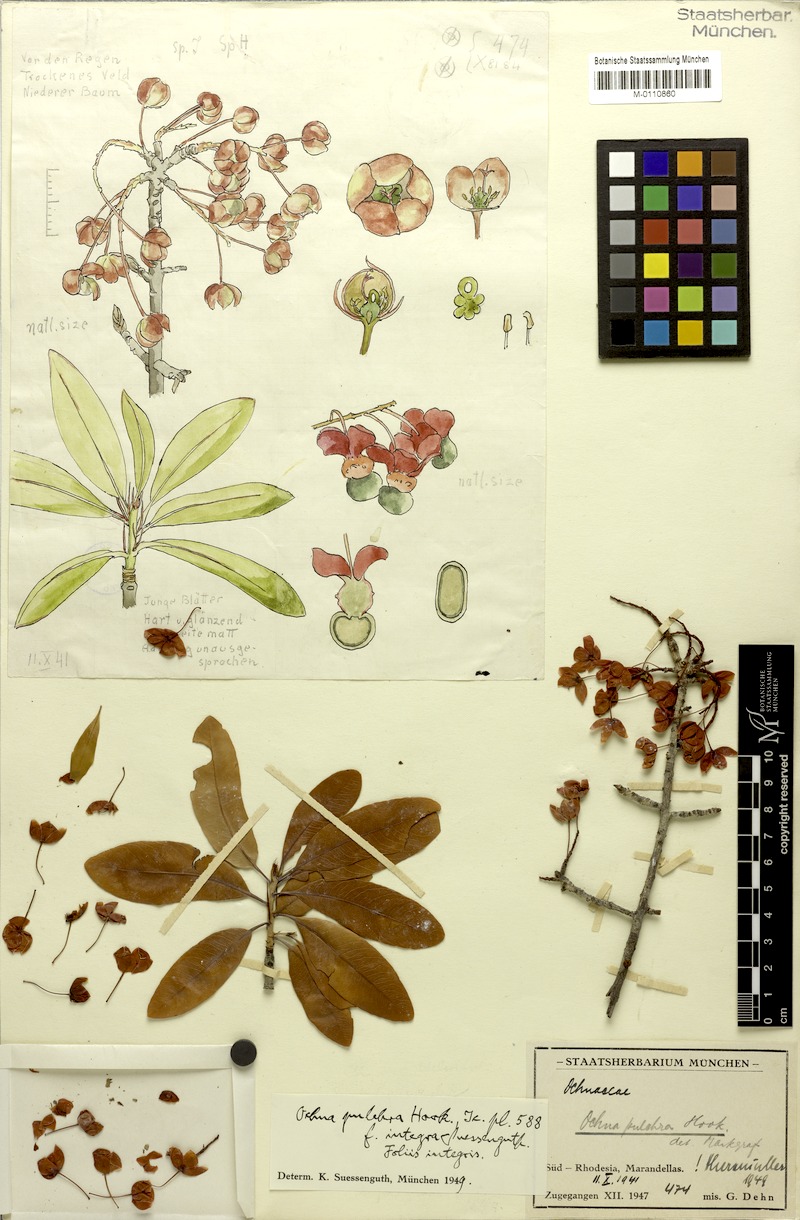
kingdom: Plantae
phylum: Tracheophyta
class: Magnoliopsida
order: Malpighiales
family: Ochnaceae
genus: Ochna
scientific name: Ochna pulchra
